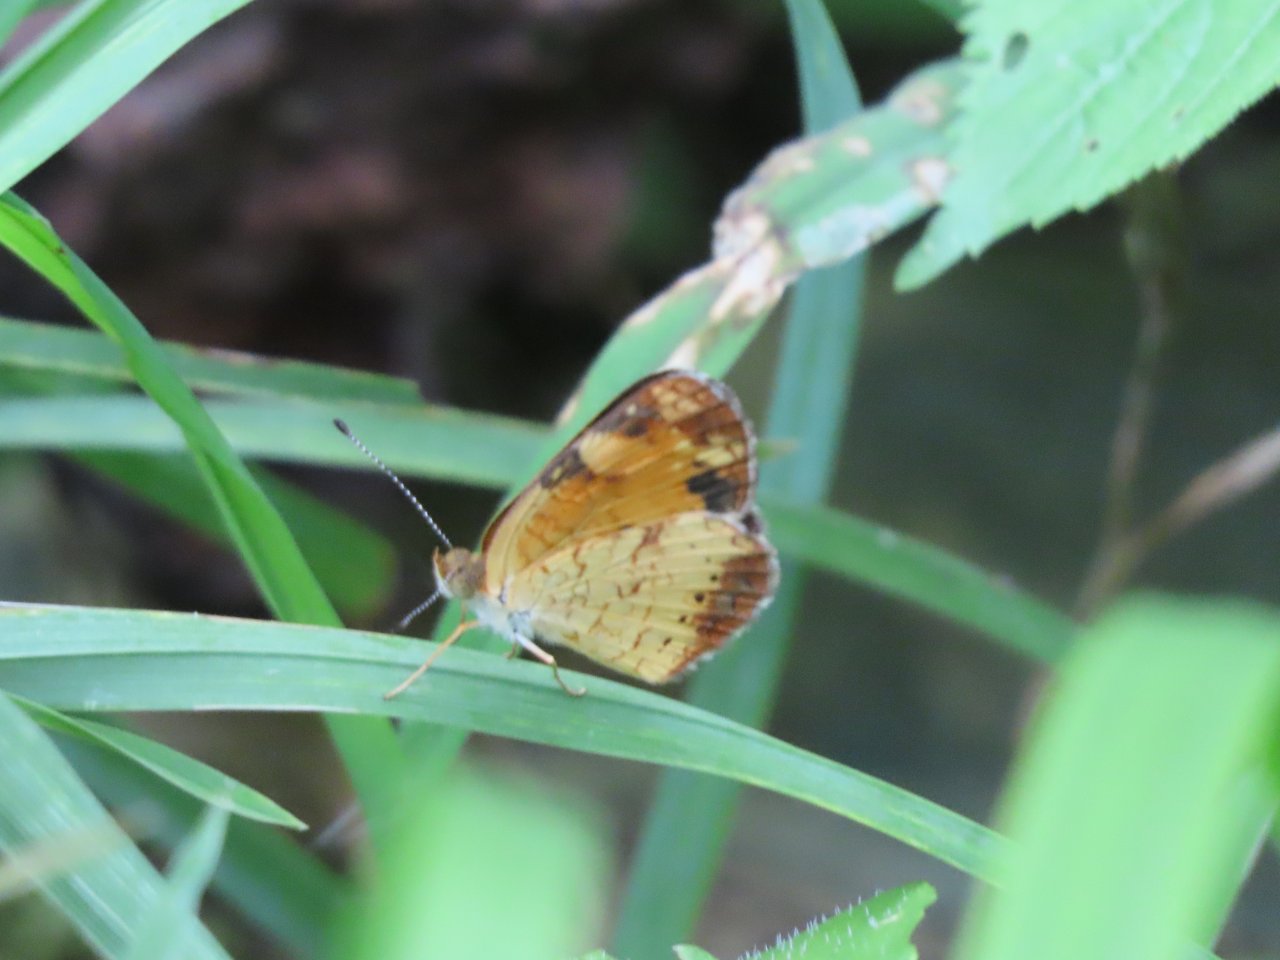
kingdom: Animalia
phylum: Arthropoda
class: Insecta
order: Lepidoptera
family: Nymphalidae
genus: Phyciodes
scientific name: Phyciodes tharos
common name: Pearl Crescent
